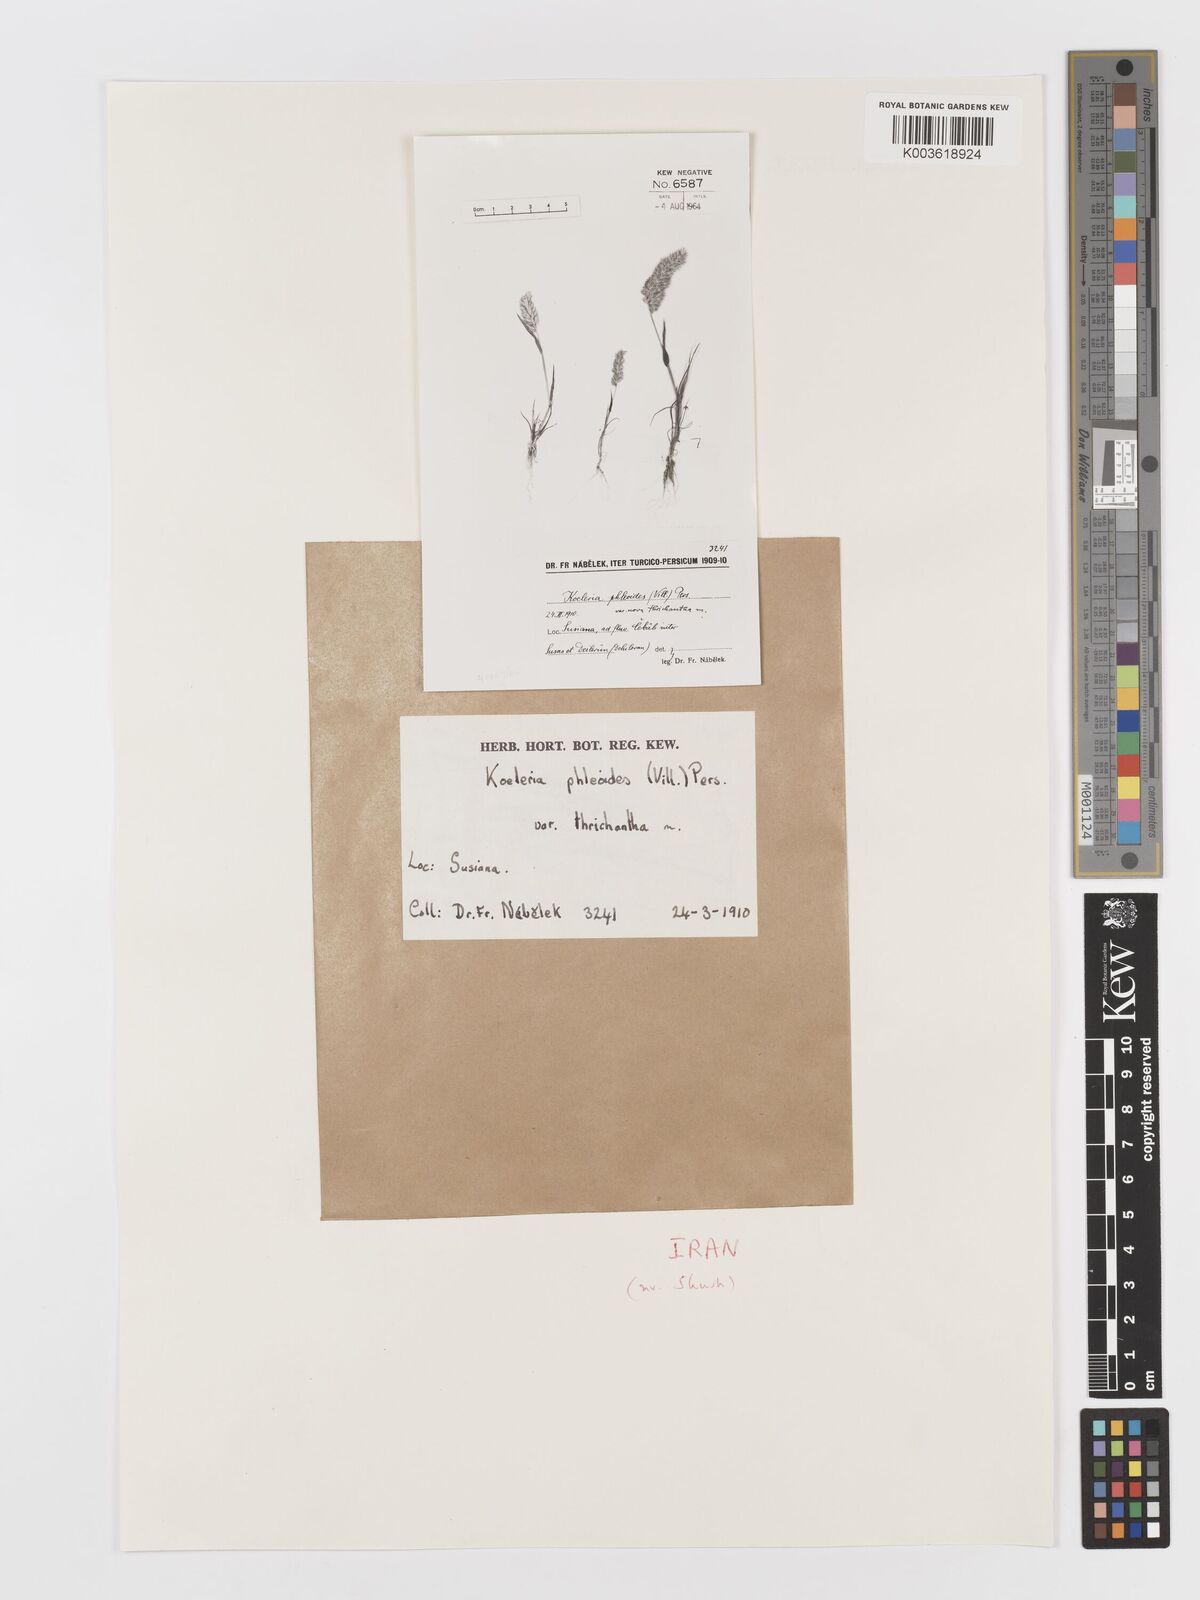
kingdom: Plantae
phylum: Tracheophyta
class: Liliopsida
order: Poales
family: Poaceae
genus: Rostraria
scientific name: Rostraria cristata
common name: Mediterranean hair-grass
